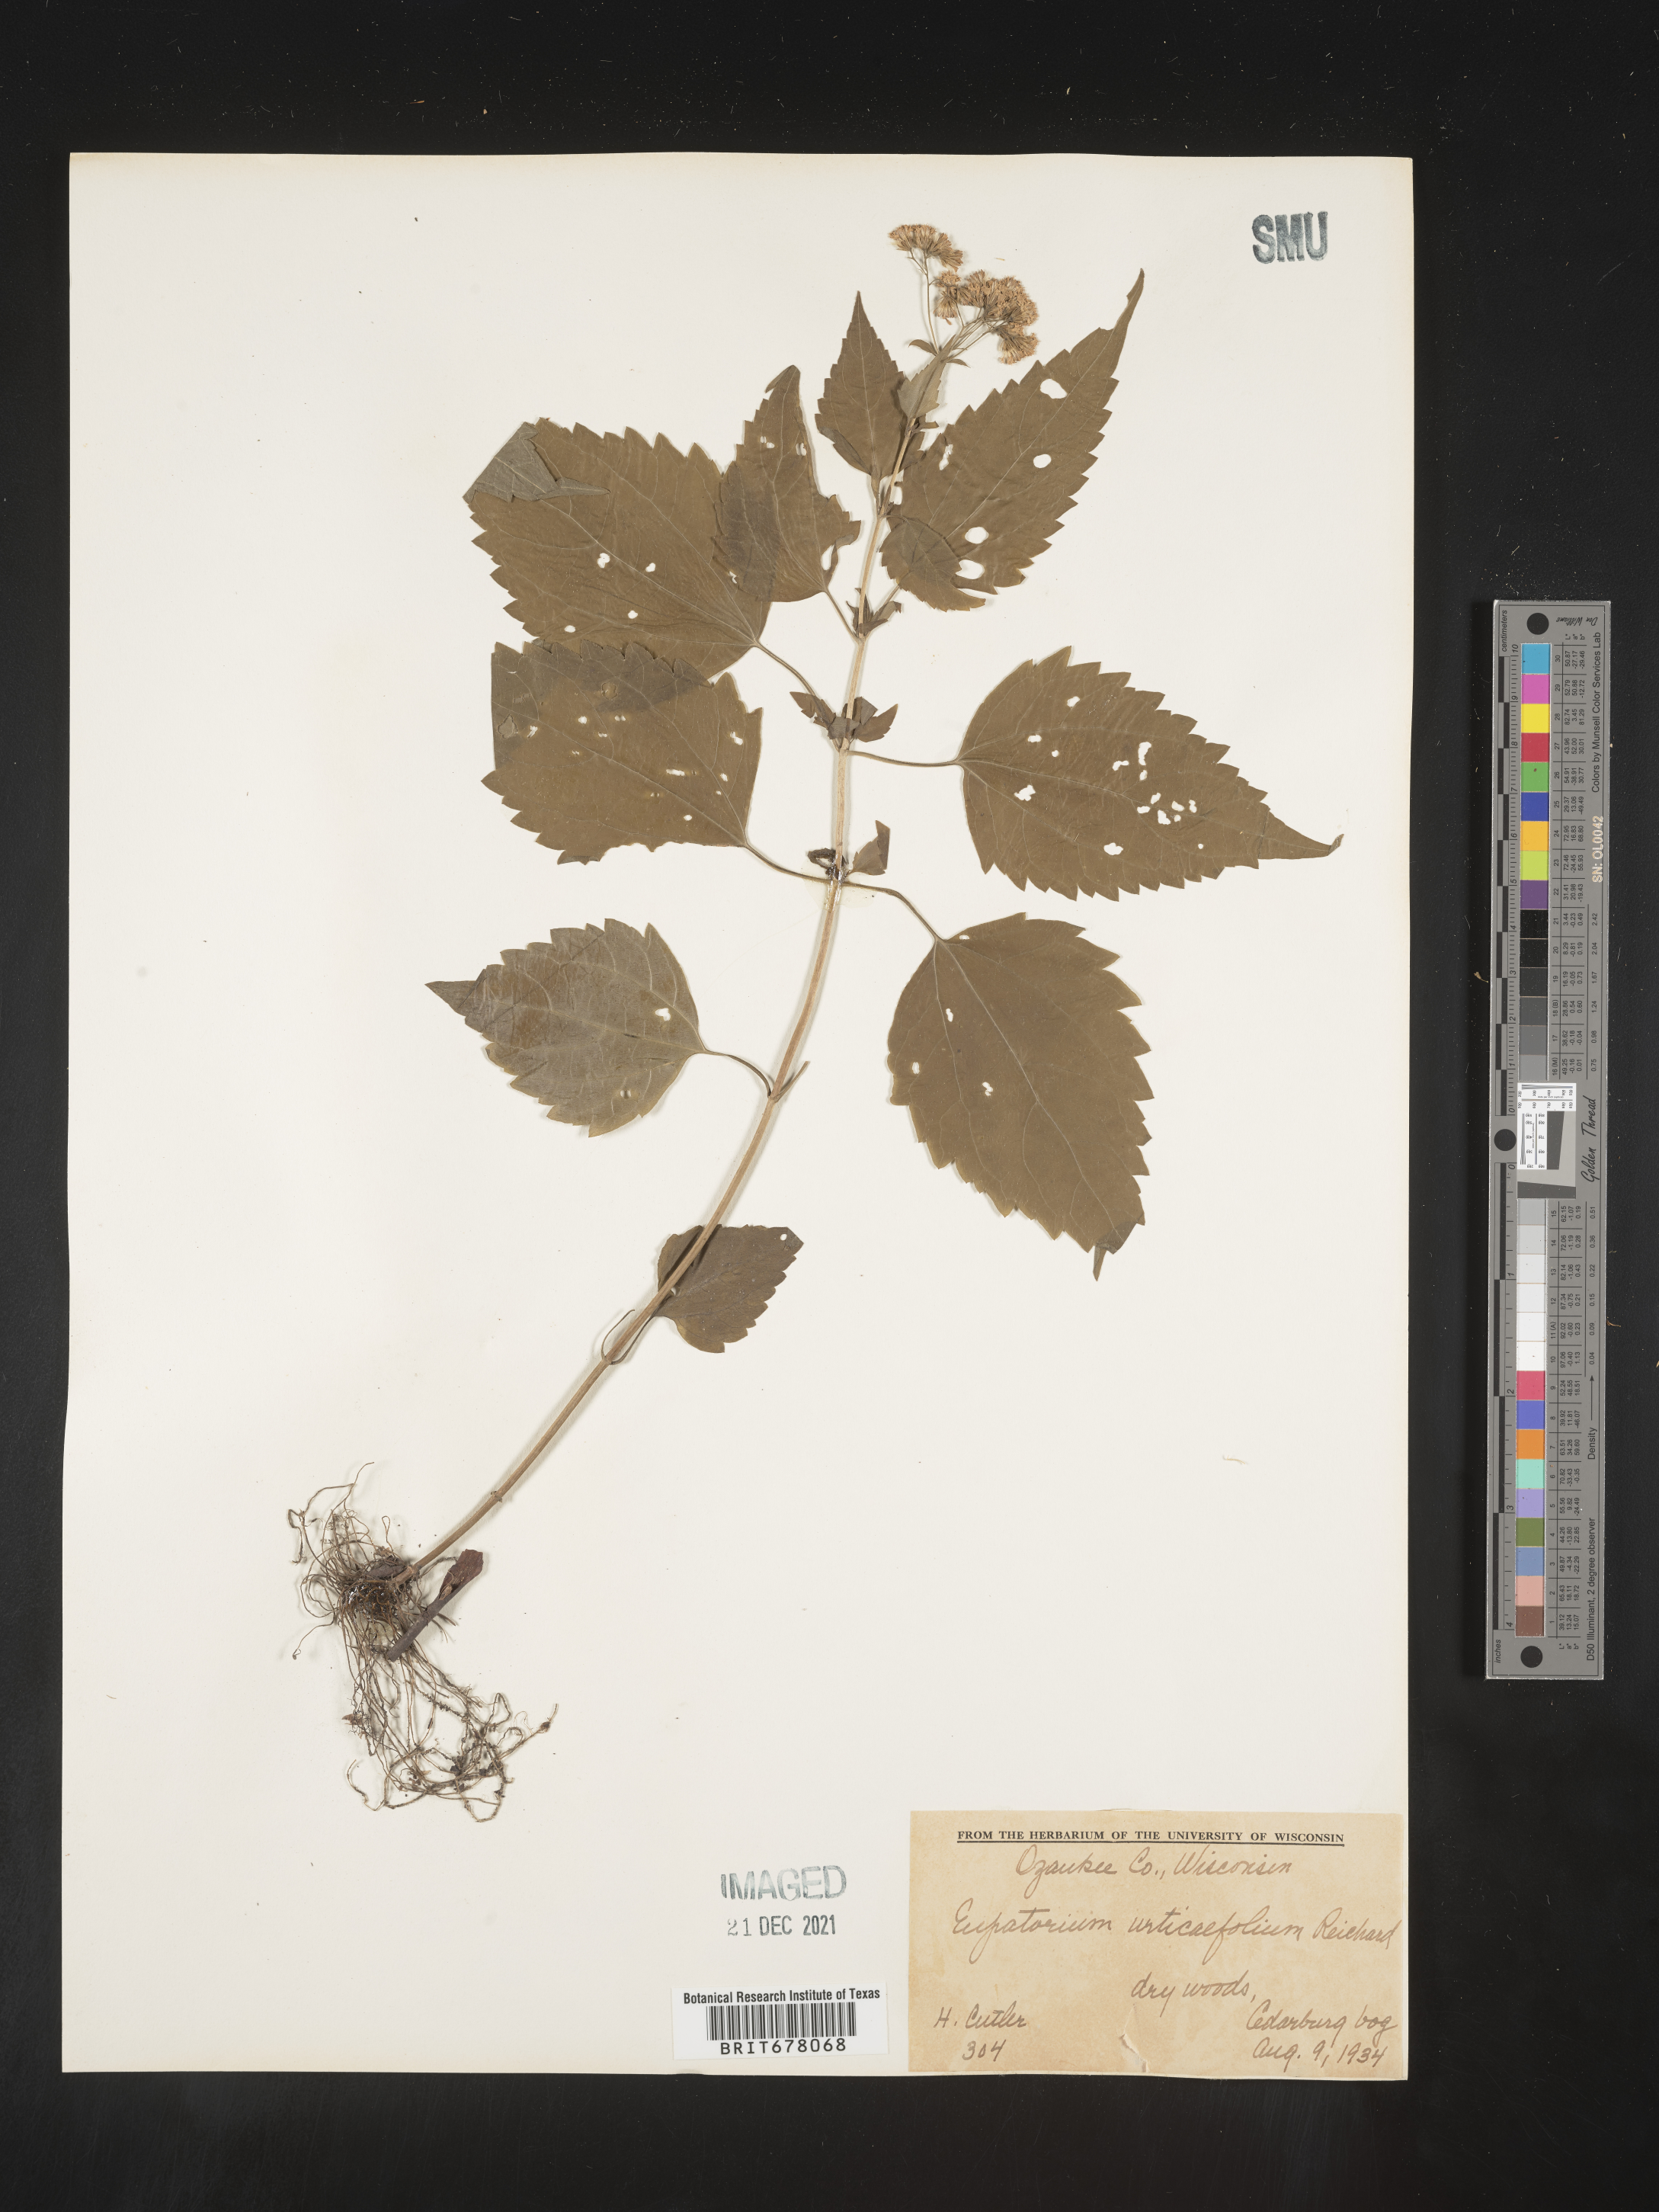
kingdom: Plantae
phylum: Tracheophyta
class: Magnoliopsida
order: Asterales
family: Asteraceae
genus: Eupatorium
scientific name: Eupatorium
